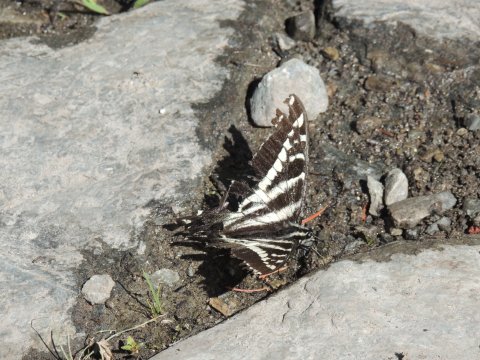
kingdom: Animalia
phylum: Arthropoda
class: Insecta
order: Lepidoptera
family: Papilionidae
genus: Pterourus
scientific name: Pterourus eurymedon
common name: Pale Swallowtail
